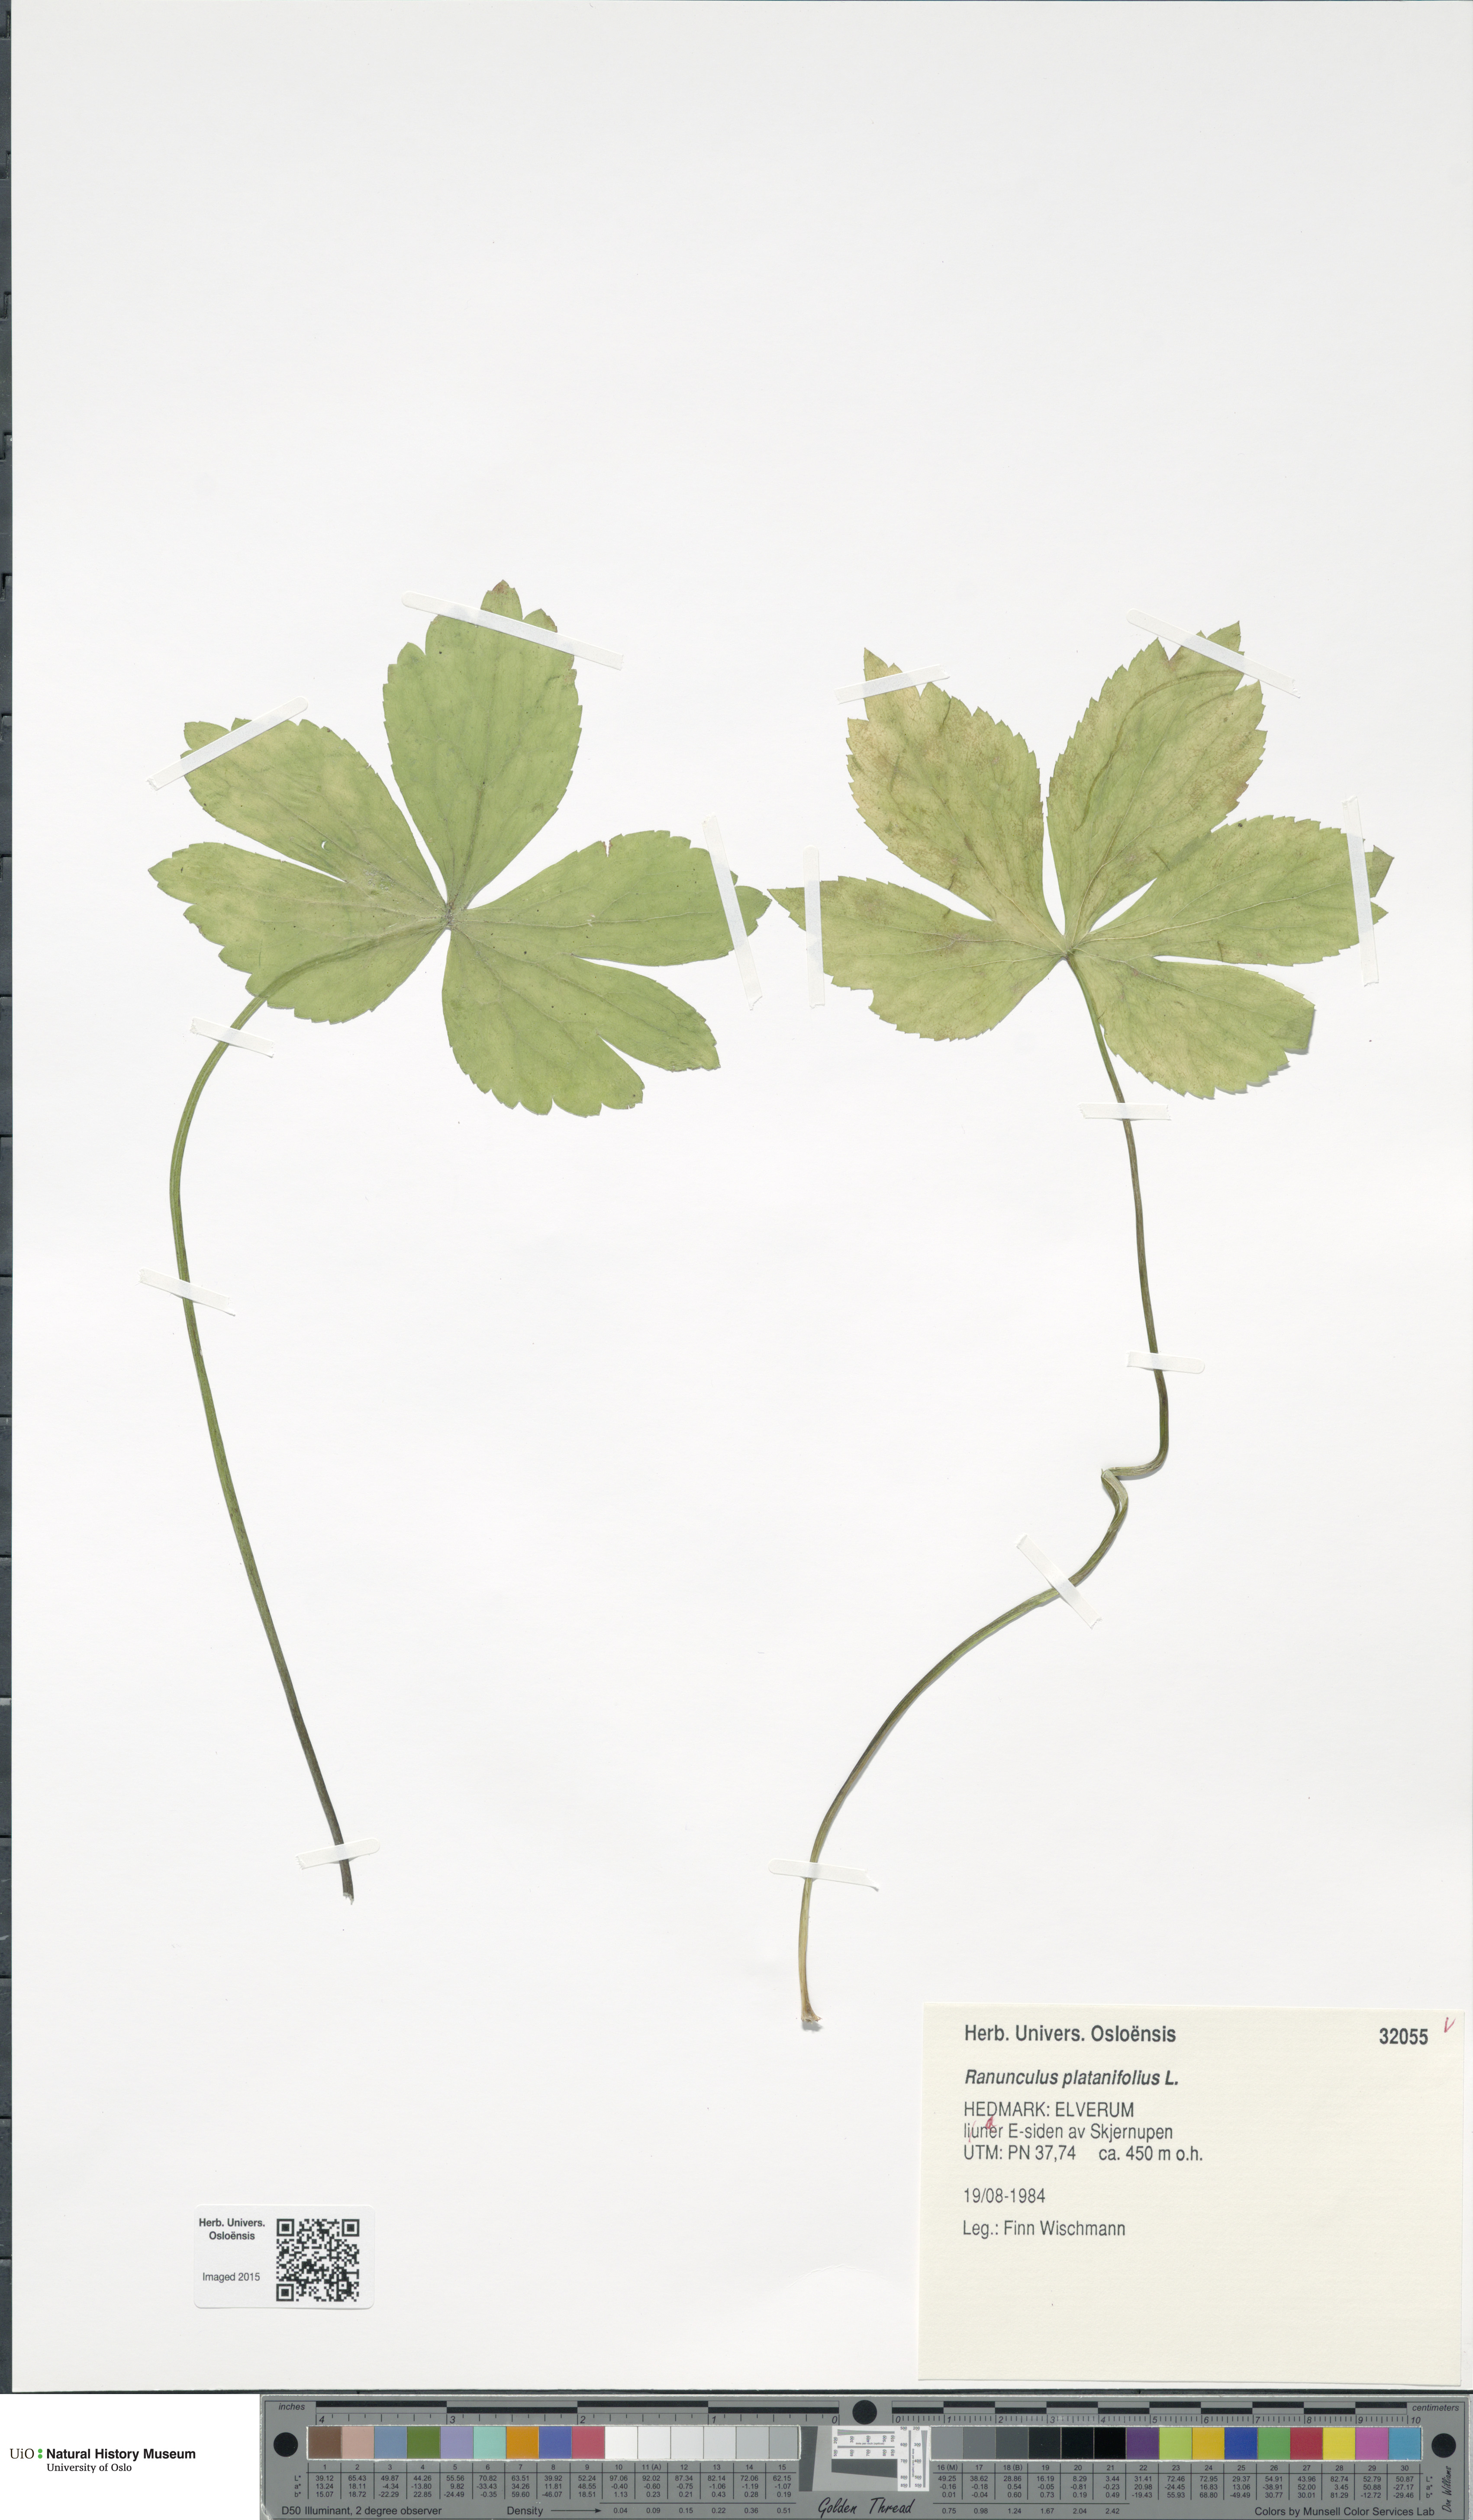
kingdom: Plantae
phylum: Tracheophyta
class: Magnoliopsida
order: Ranunculales
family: Ranunculaceae
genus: Ranunculus
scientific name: Ranunculus platanifolius
